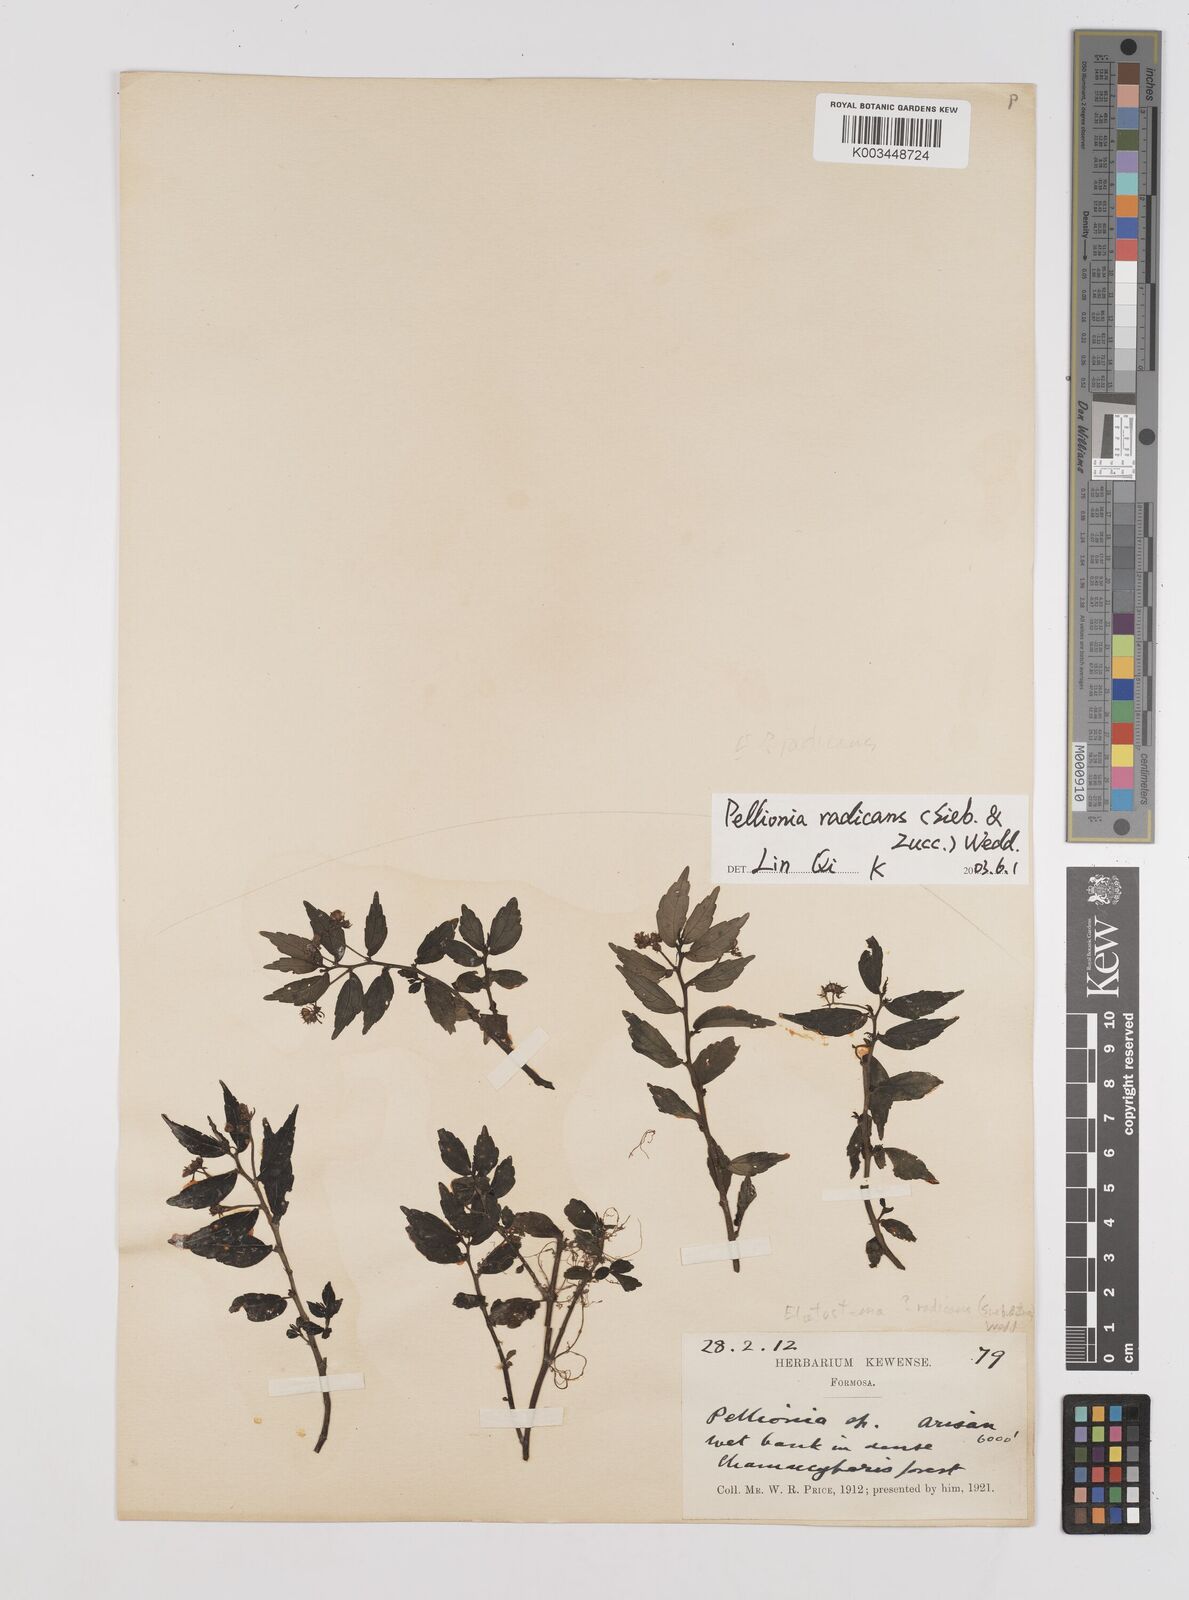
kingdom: Plantae
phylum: Tracheophyta
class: Magnoliopsida
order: Rosales
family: Urticaceae
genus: Elatostema
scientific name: Elatostema radicans
